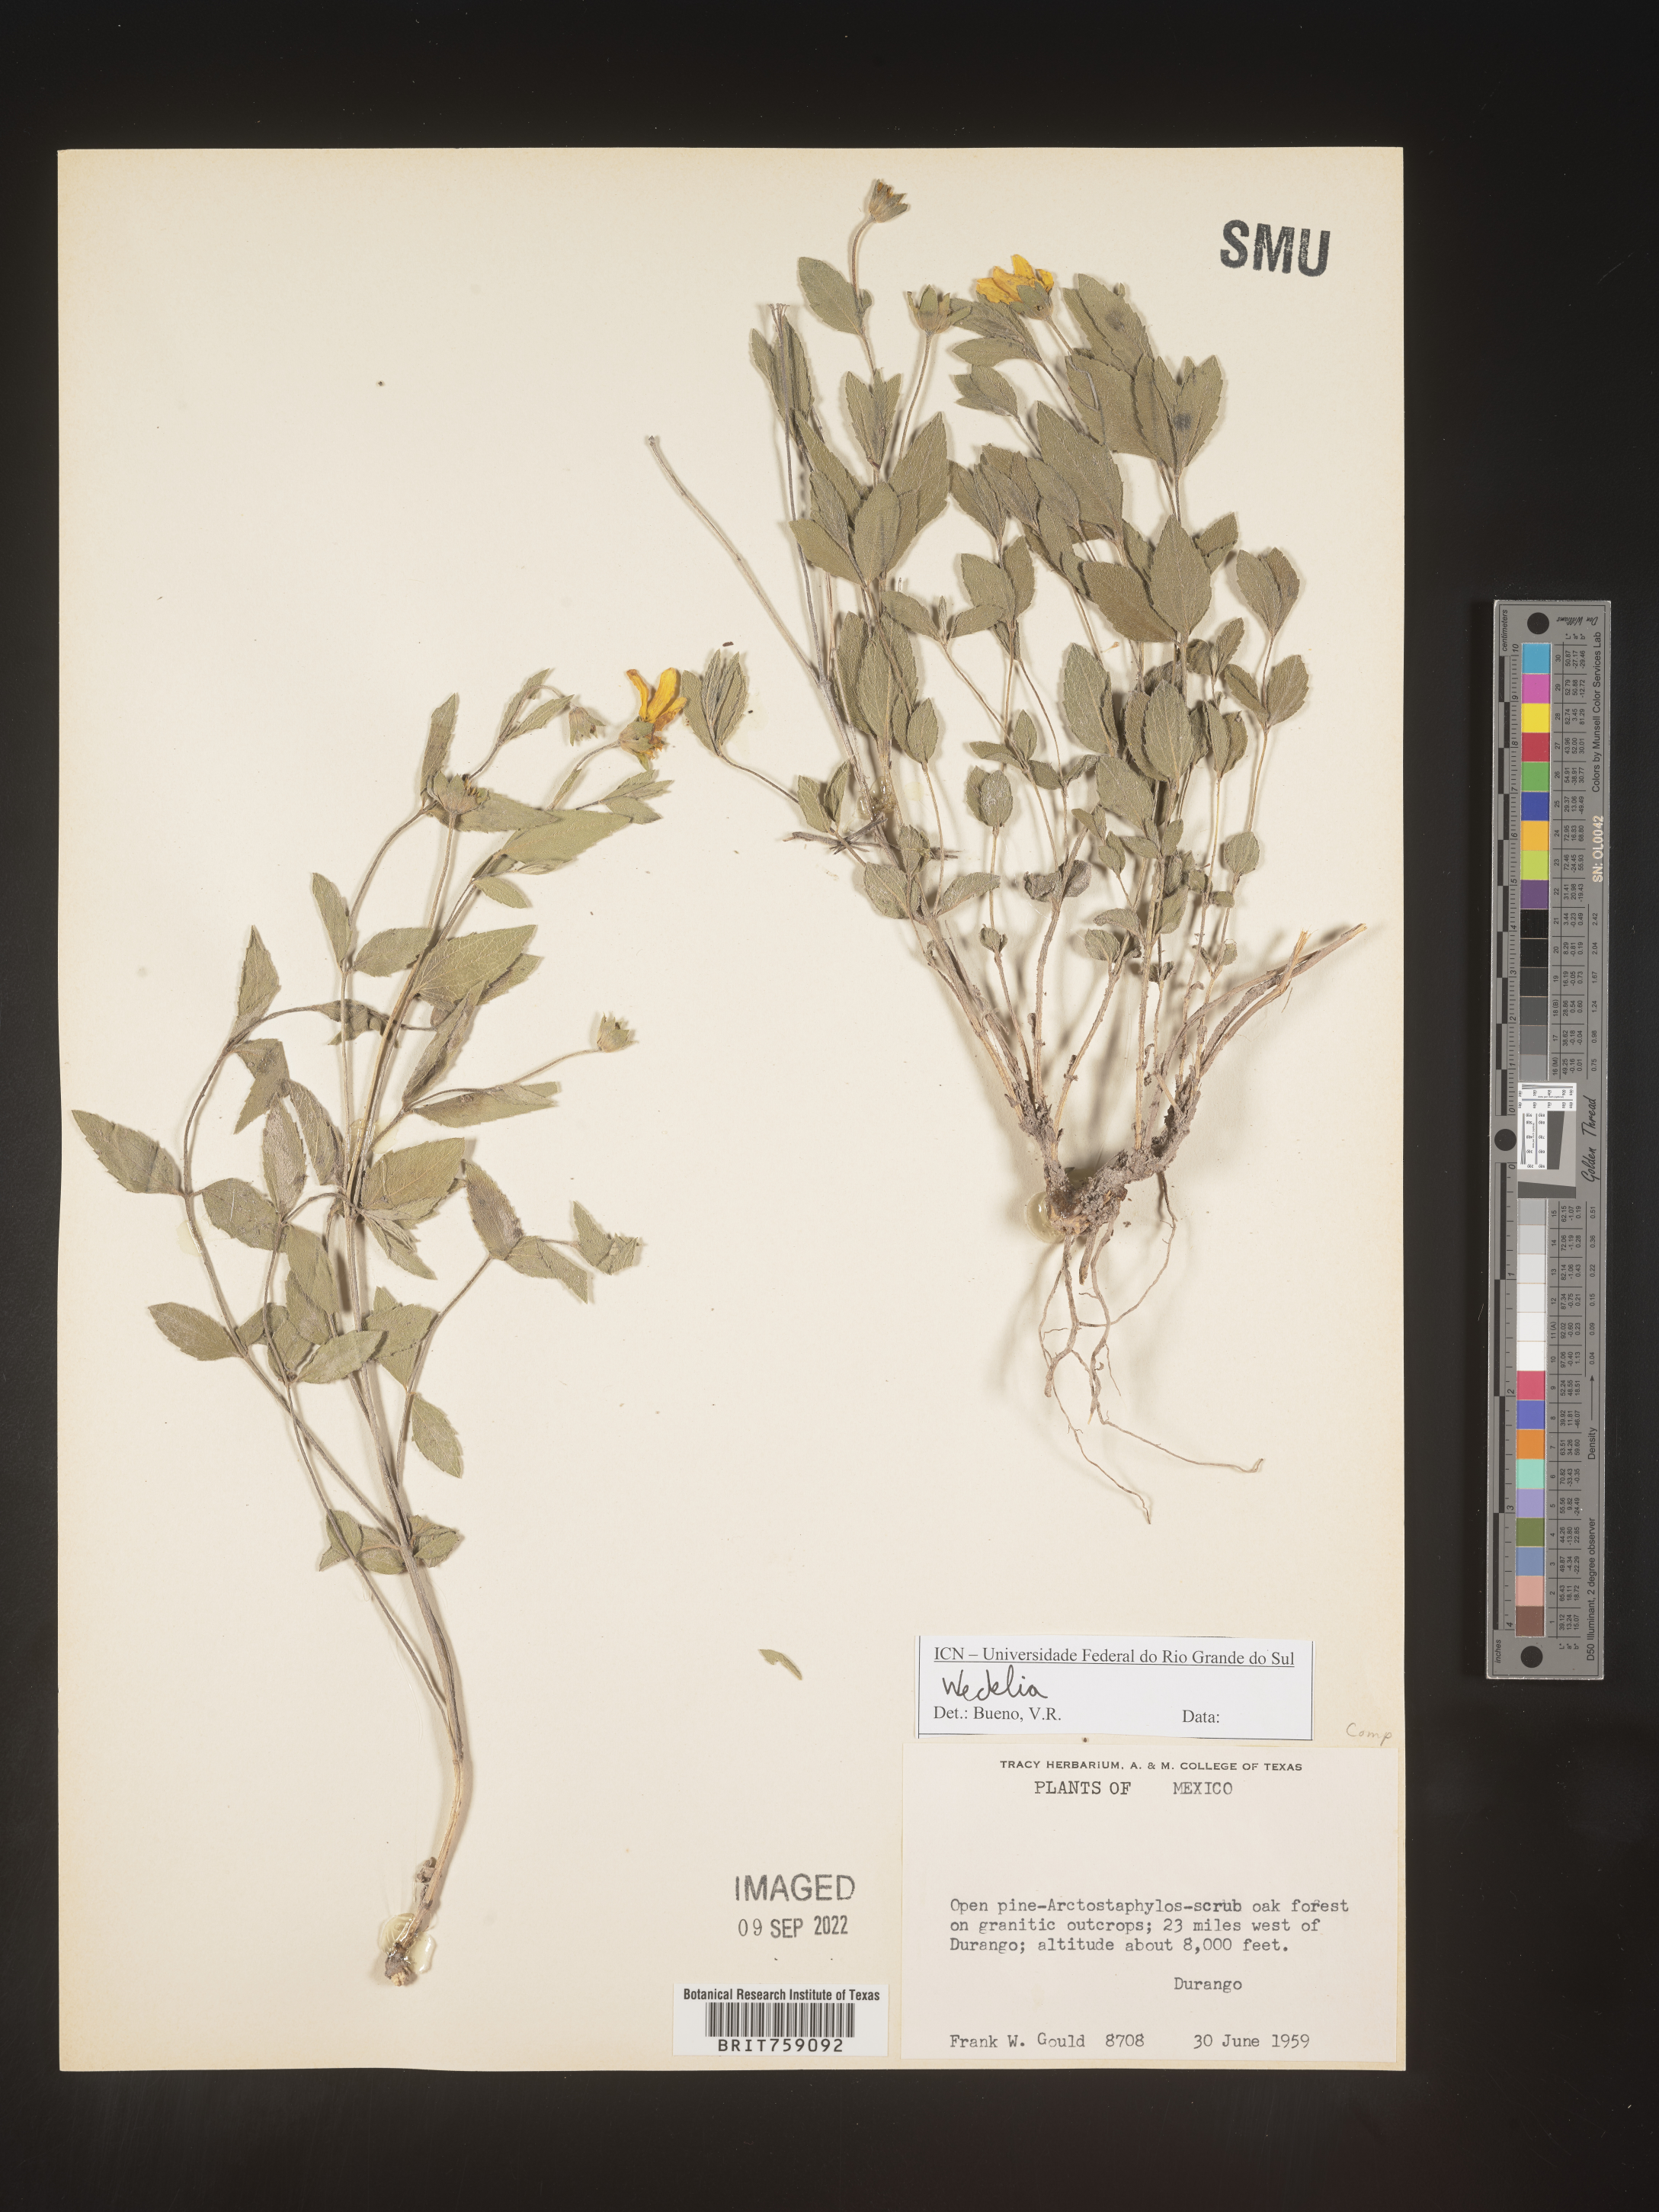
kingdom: Plantae
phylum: Tracheophyta
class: Magnoliopsida
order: Asterales
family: Asteraceae
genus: Wedelia
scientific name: Wedelia
